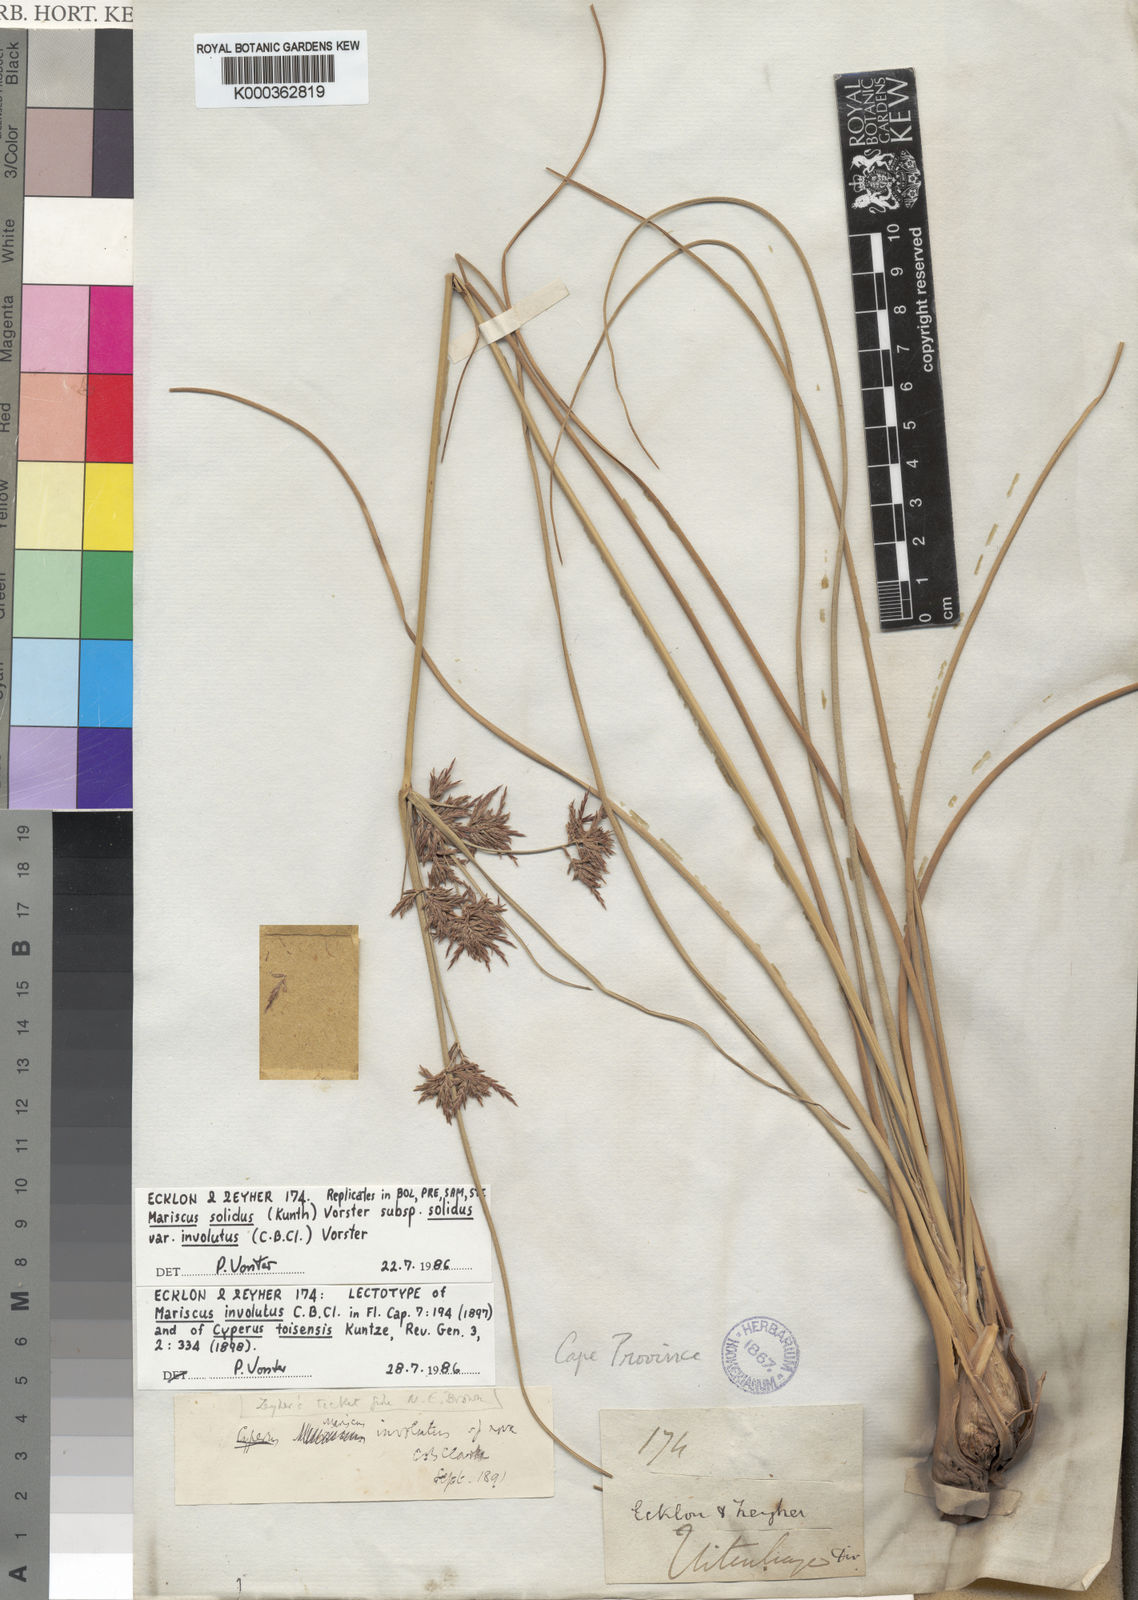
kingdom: Plantae
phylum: Tracheophyta
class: Liliopsida
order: Poales
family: Cyperaceae
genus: Cyperus
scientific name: Cyperus dactyliformis
